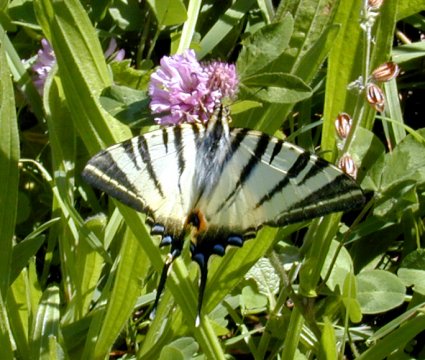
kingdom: Animalia
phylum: Arthropoda
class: Insecta
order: Lepidoptera
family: Papilionidae
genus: Iphiclides
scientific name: Iphiclides podalirius
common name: Scarce Swallowtail
